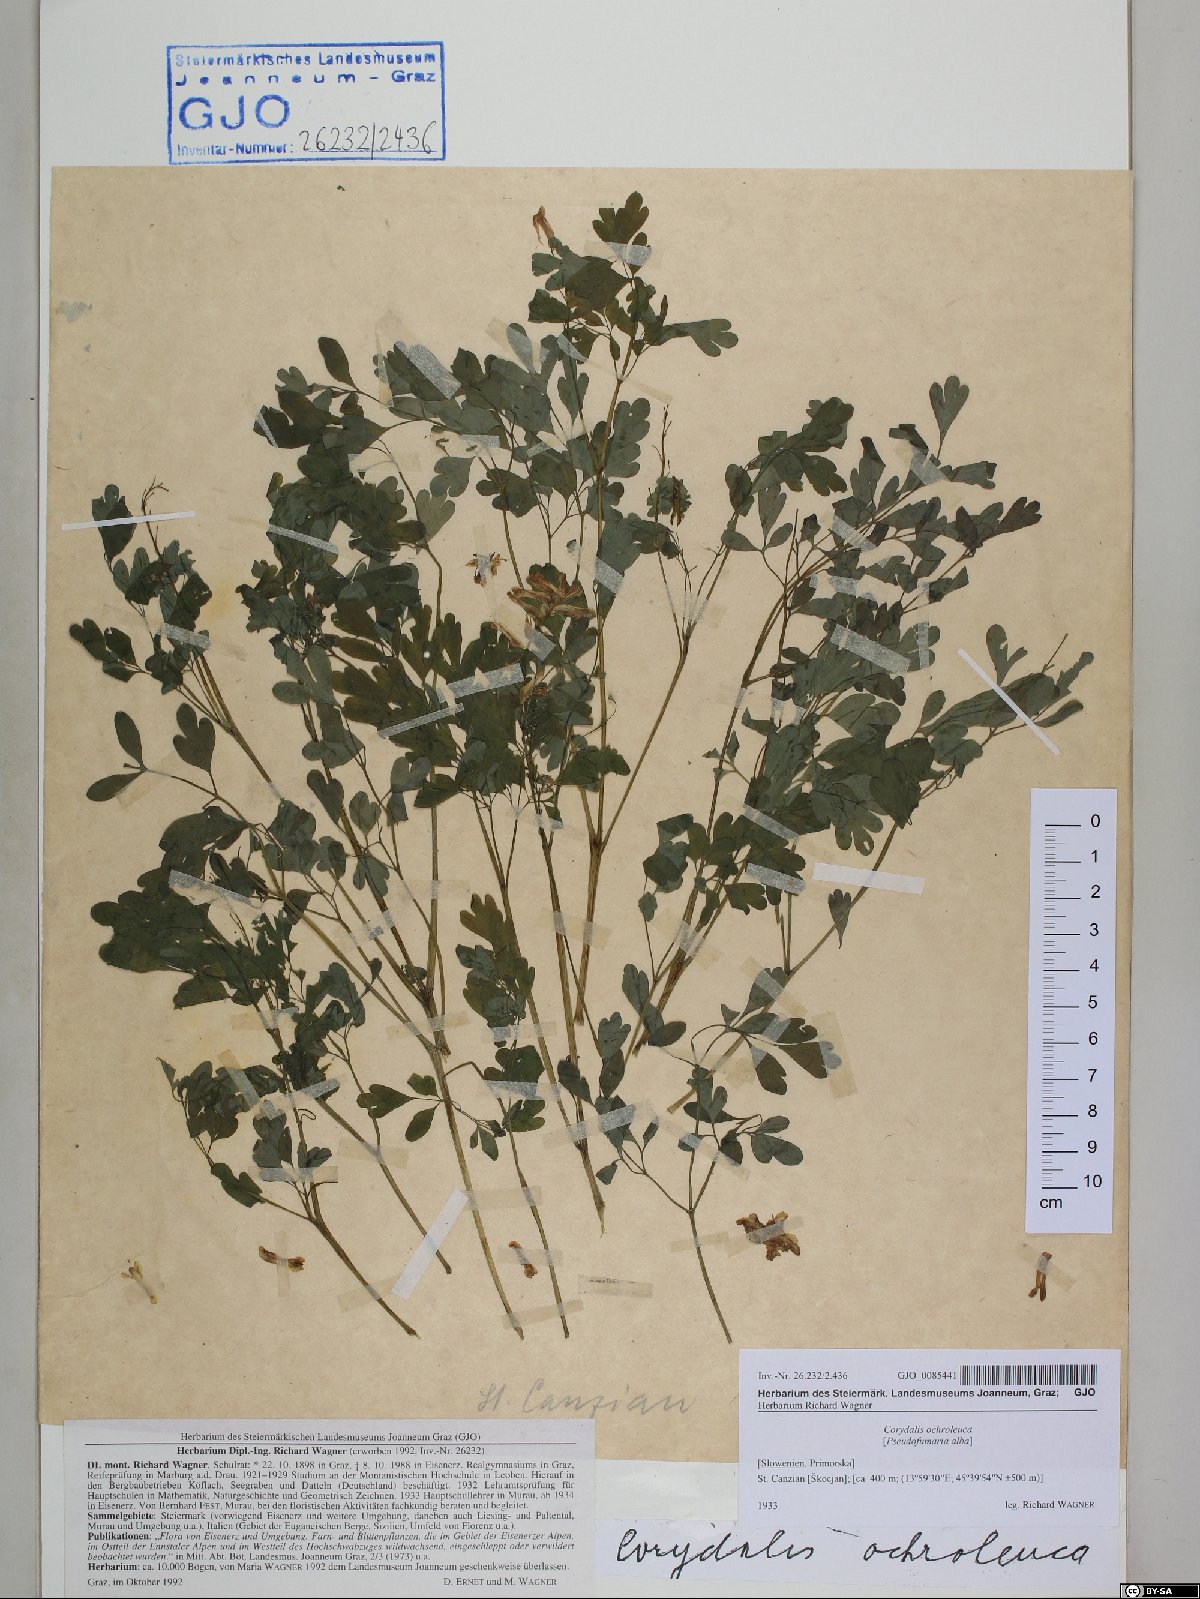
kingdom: Plantae
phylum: Tracheophyta
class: Magnoliopsida
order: Ranunculales
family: Papaveraceae
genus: Pseudofumaria
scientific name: Pseudofumaria alba
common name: Pale corydalis
